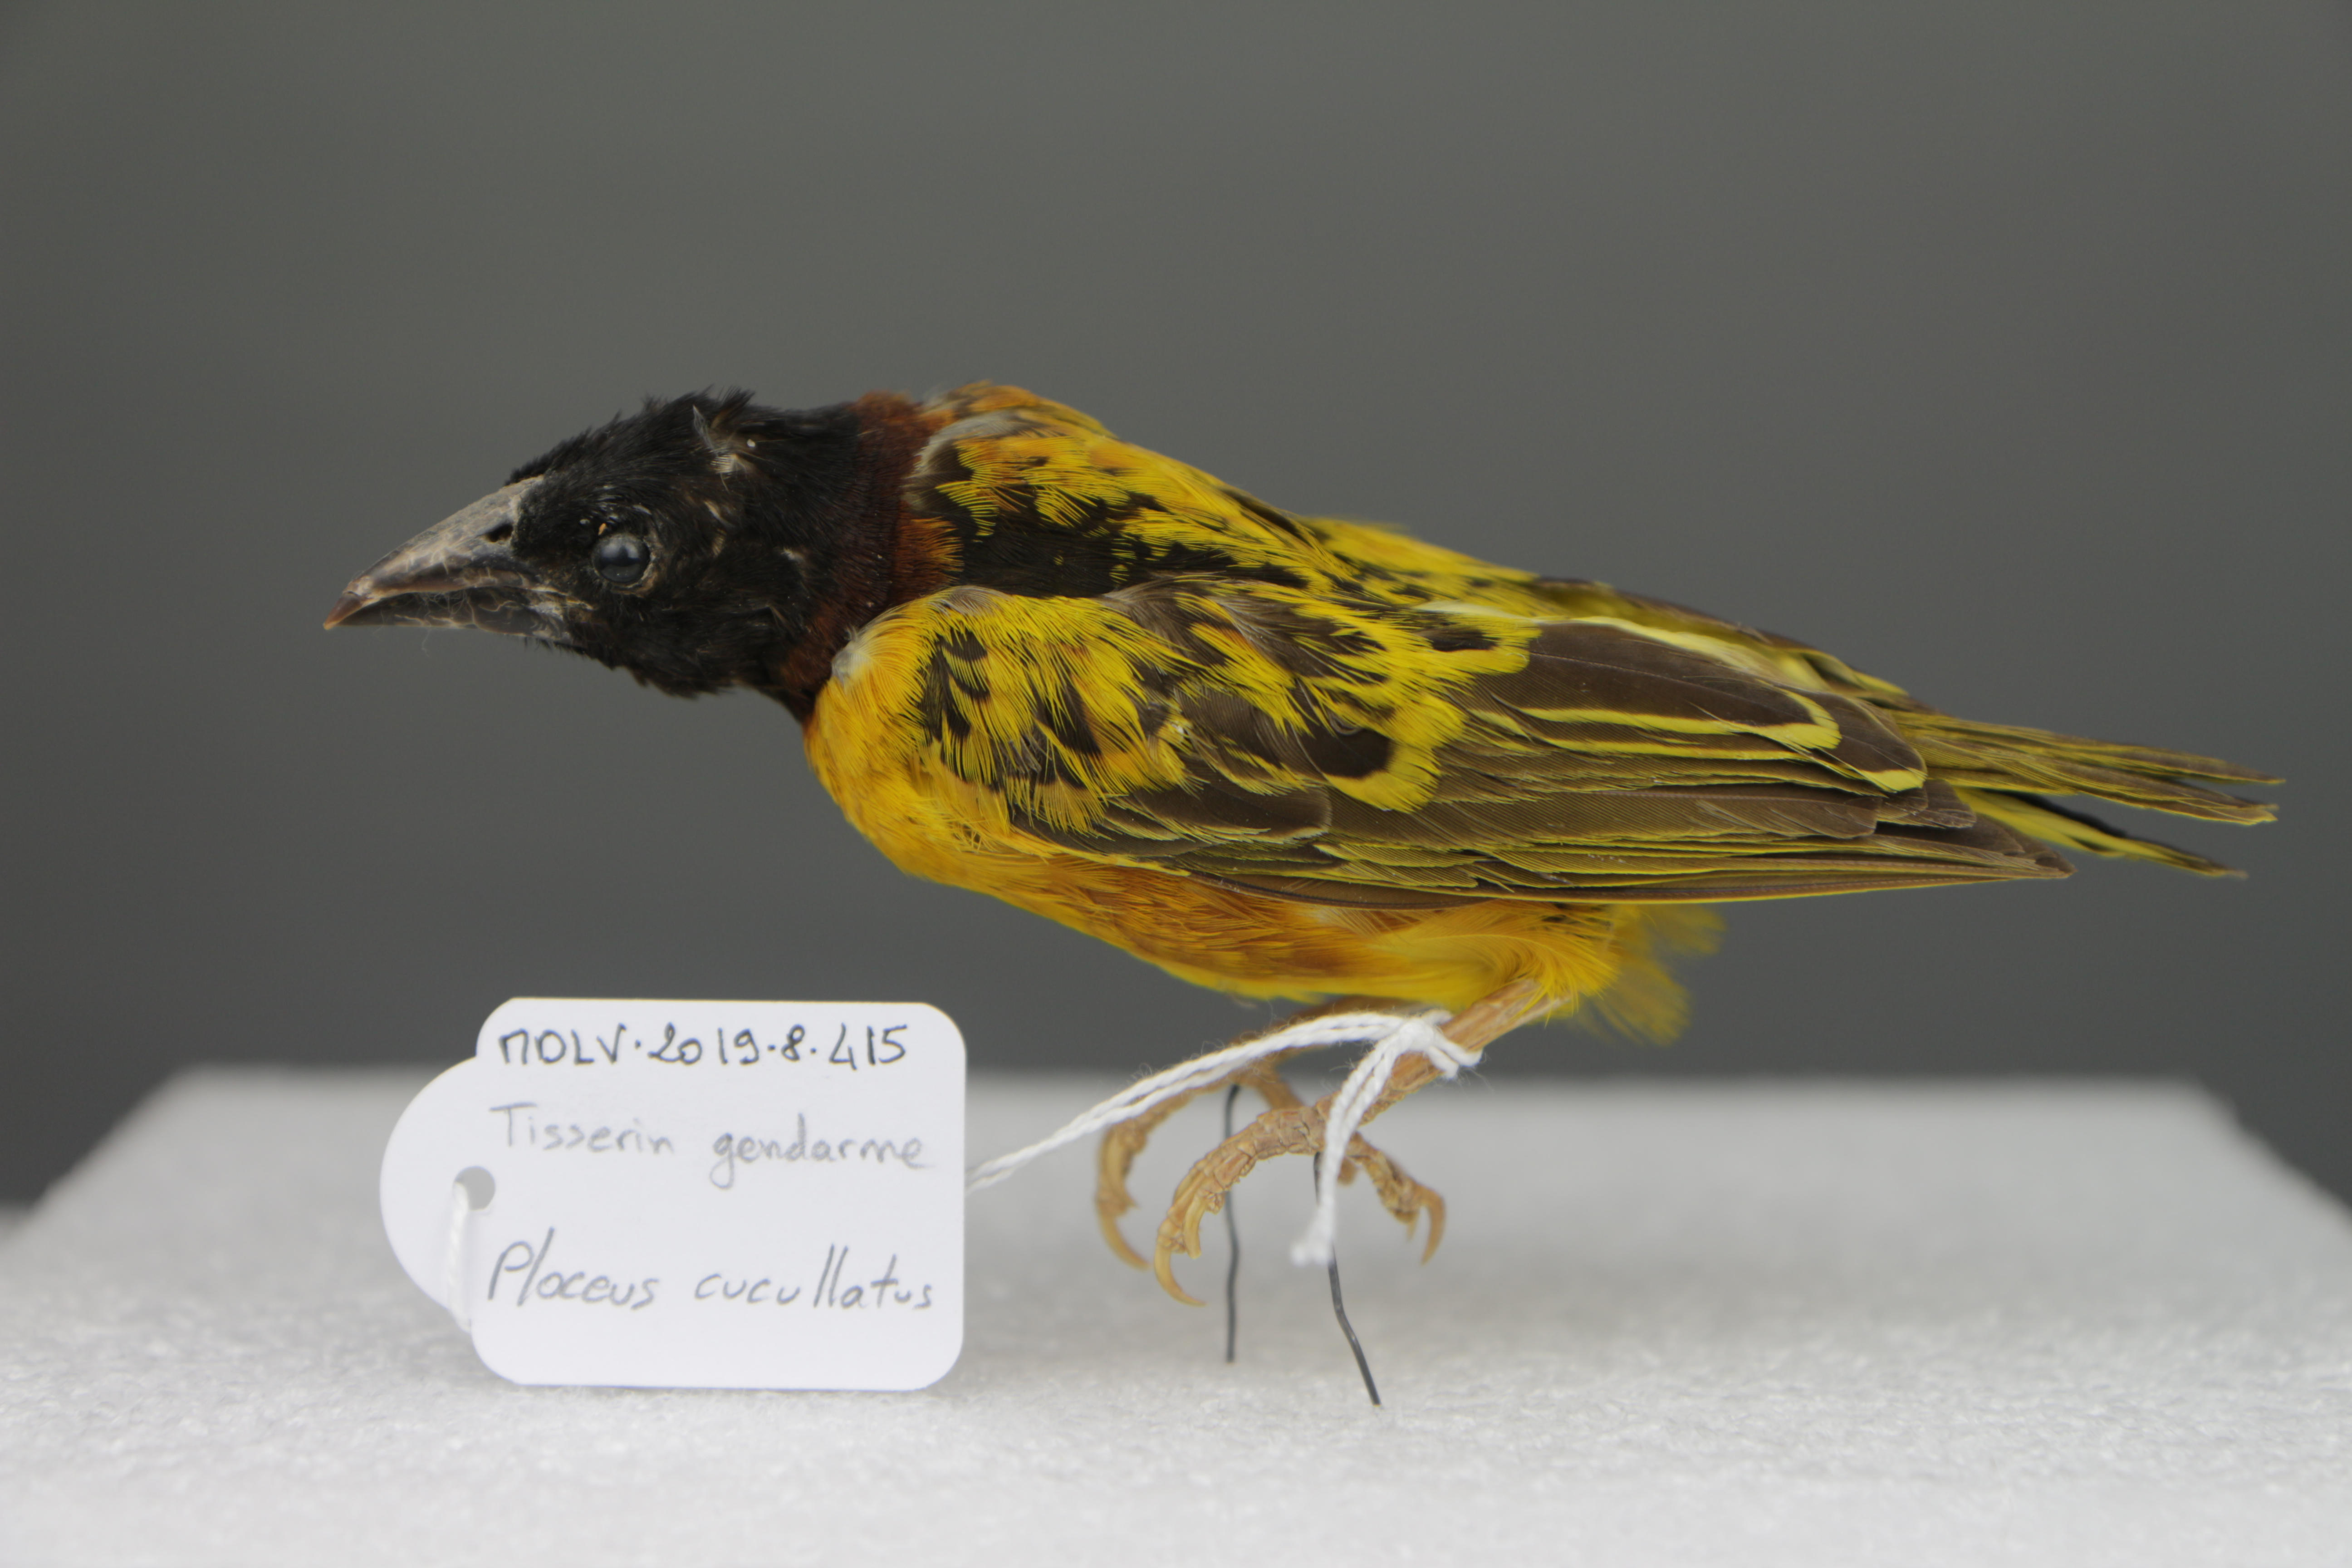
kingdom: Animalia
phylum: Chordata
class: Aves
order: Passeriformes
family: Ploceidae
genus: Ploceus
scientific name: Ploceus cucullatus
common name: Village weaver
